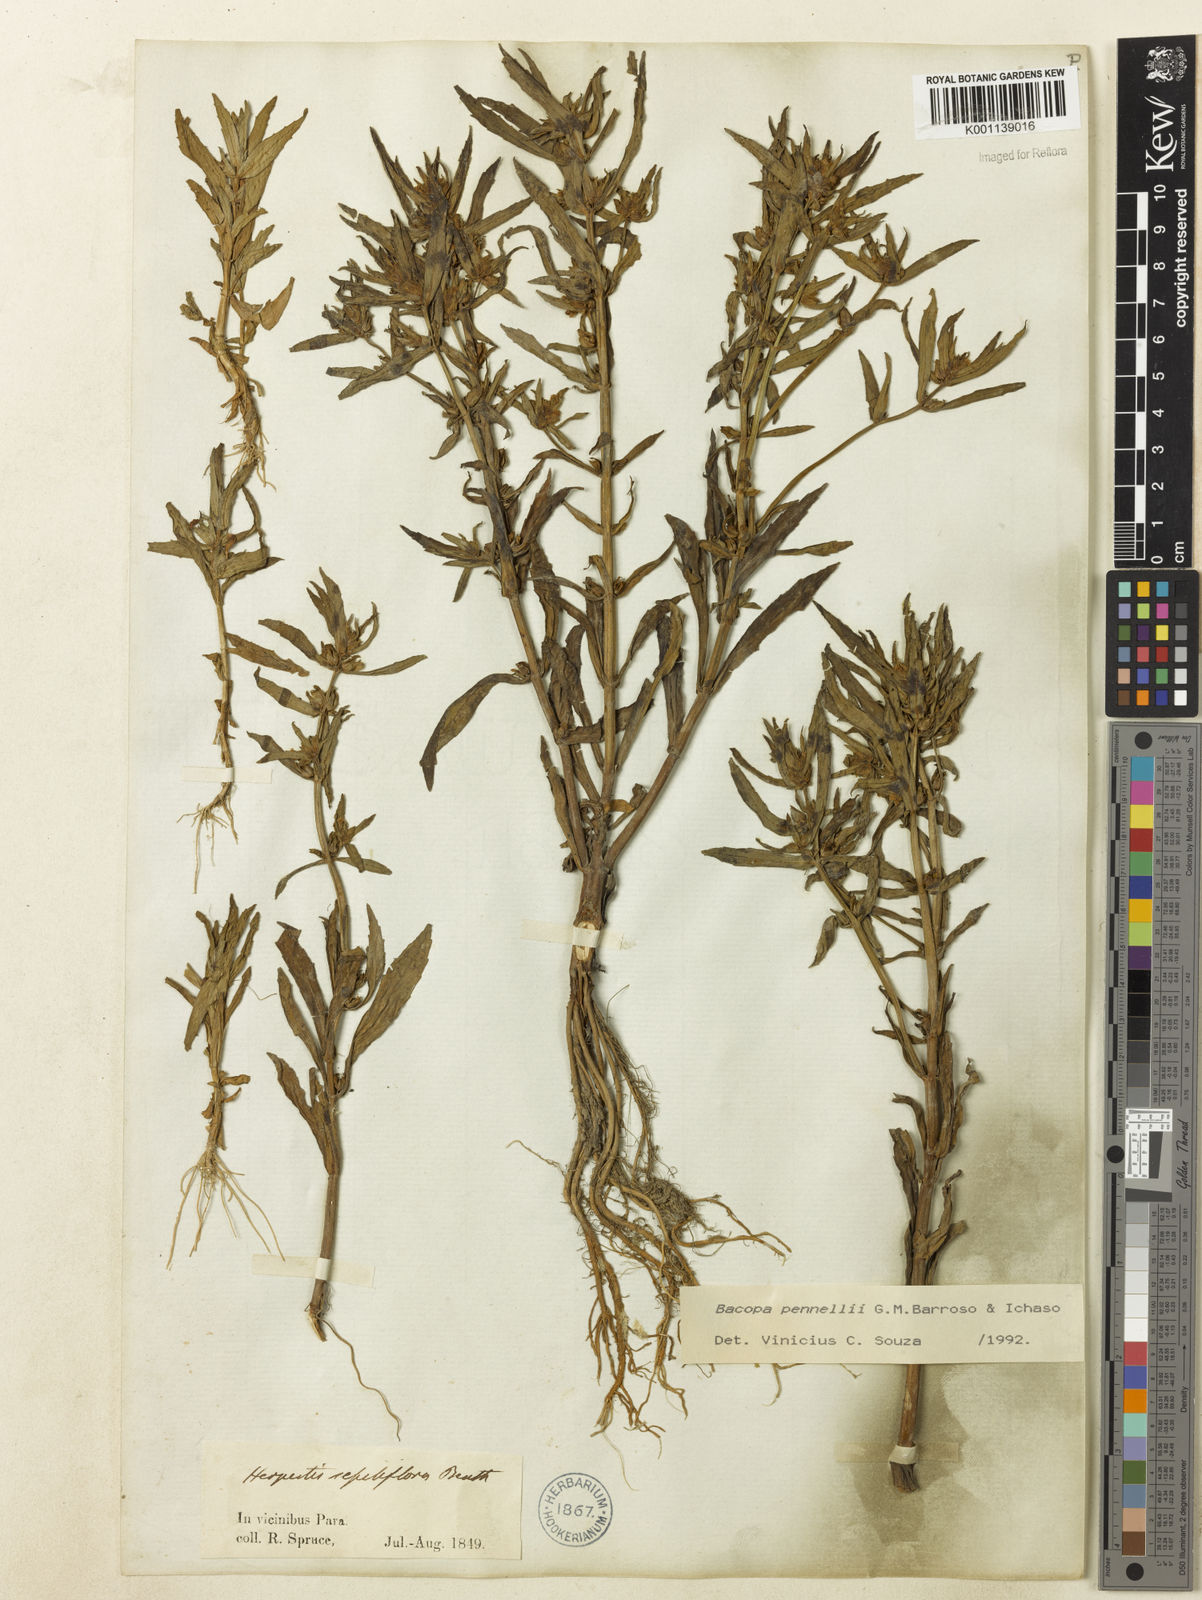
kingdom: Plantae
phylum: Tracheophyta
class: Magnoliopsida
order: Lamiales
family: Plantaginaceae
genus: Bacopa
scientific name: Bacopa pennellii
